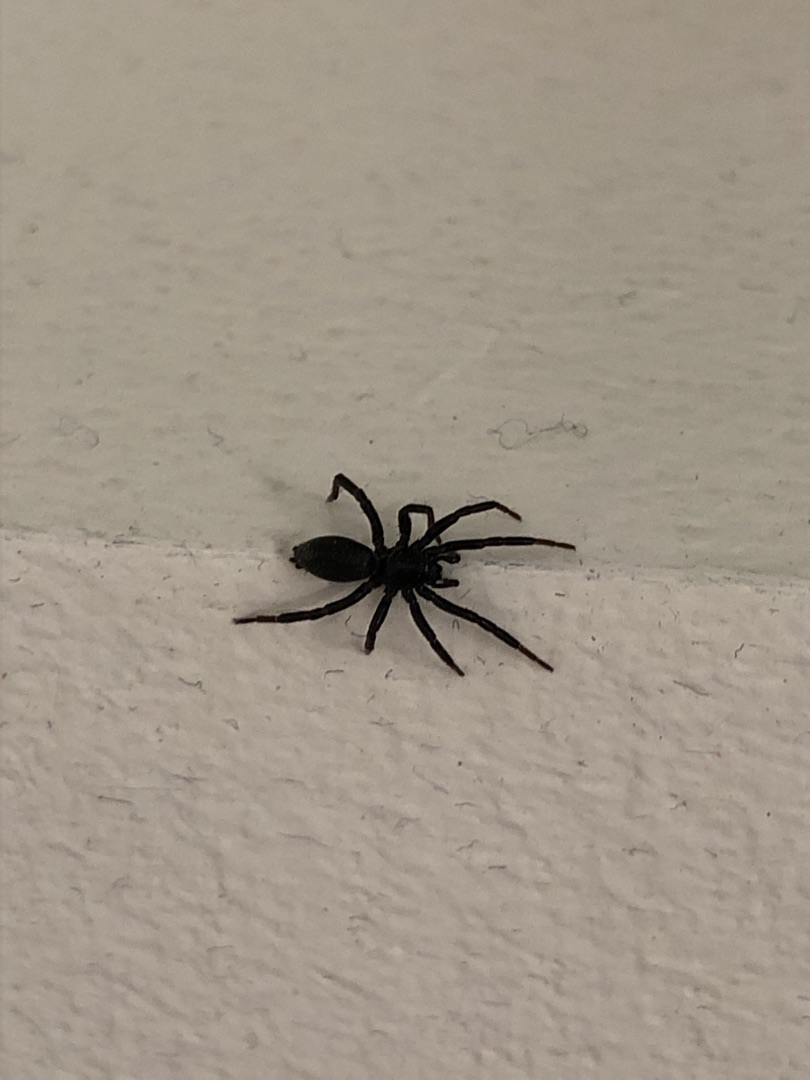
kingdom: Animalia
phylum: Arthropoda
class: Arachnida
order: Araneae
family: Gnaphosidae
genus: Drassyllus
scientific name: Drassyllus
